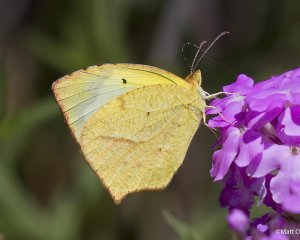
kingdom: Animalia
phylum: Arthropoda
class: Insecta
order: Lepidoptera
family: Pieridae
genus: Eurema
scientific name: Eurema mexicana
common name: Mexican Yellow
